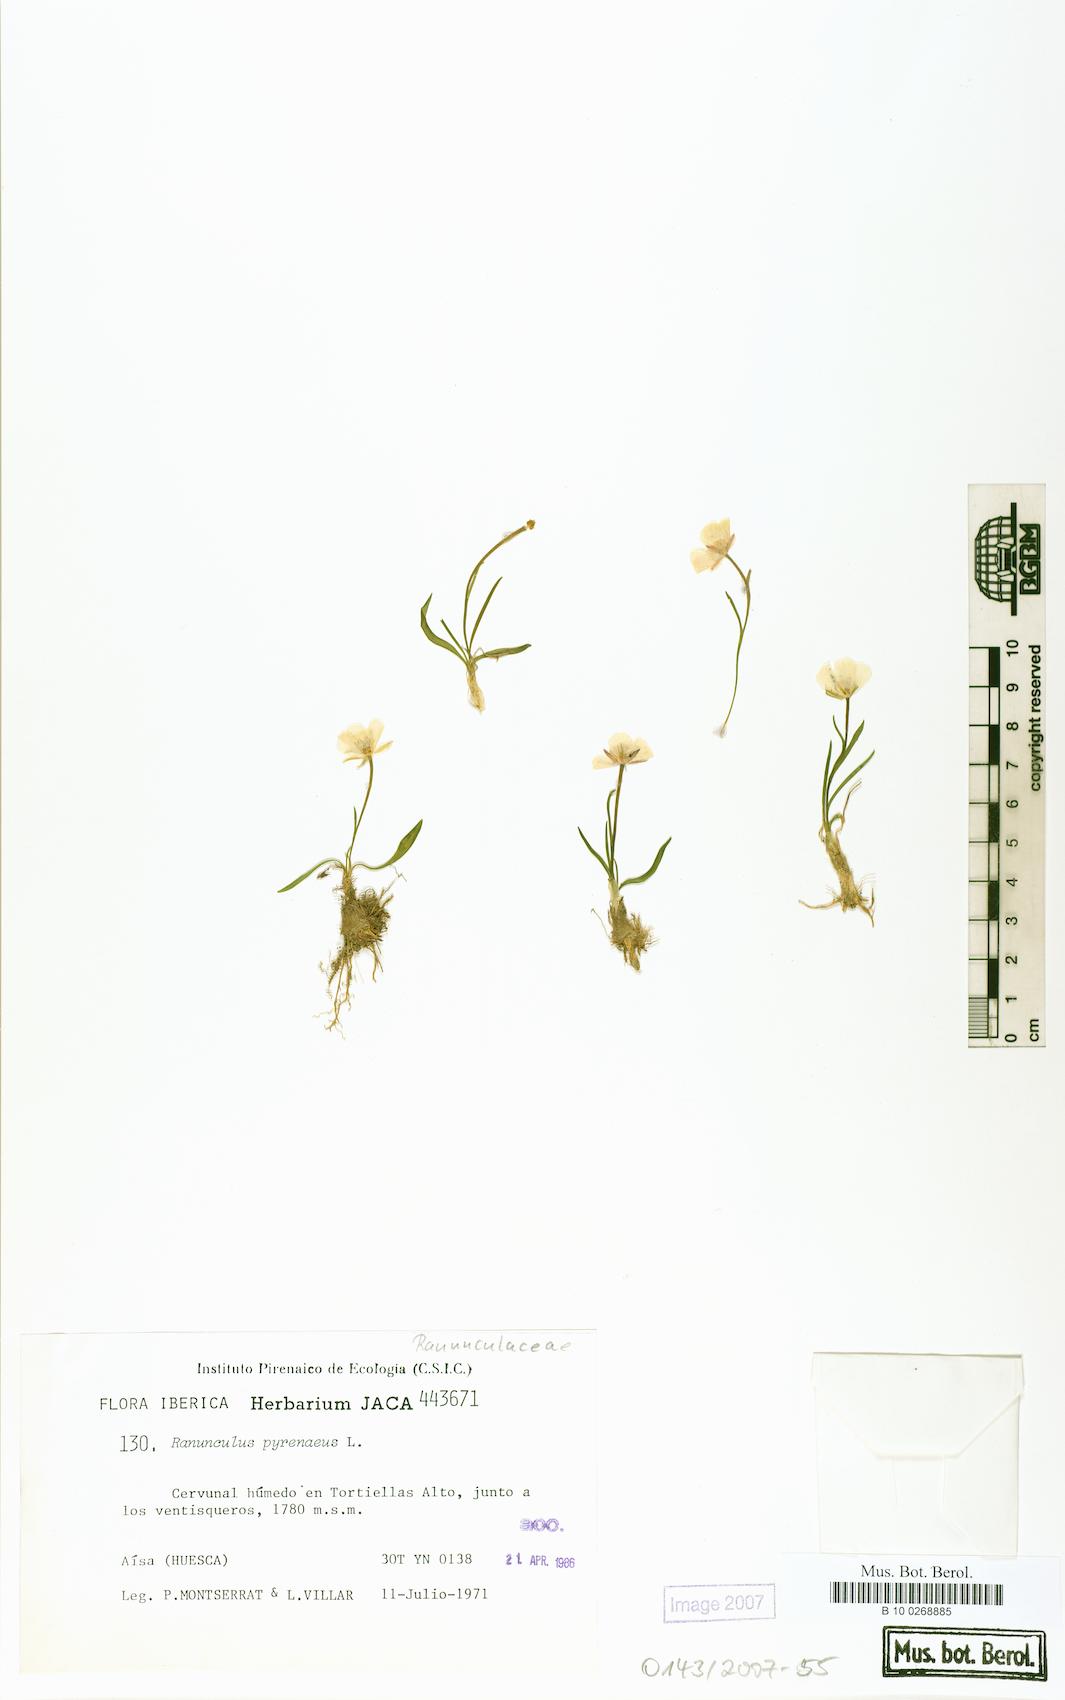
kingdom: Plantae
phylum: Tracheophyta
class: Magnoliopsida
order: Ranunculales
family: Ranunculaceae
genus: Ranunculus
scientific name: Ranunculus pyrenaeus
